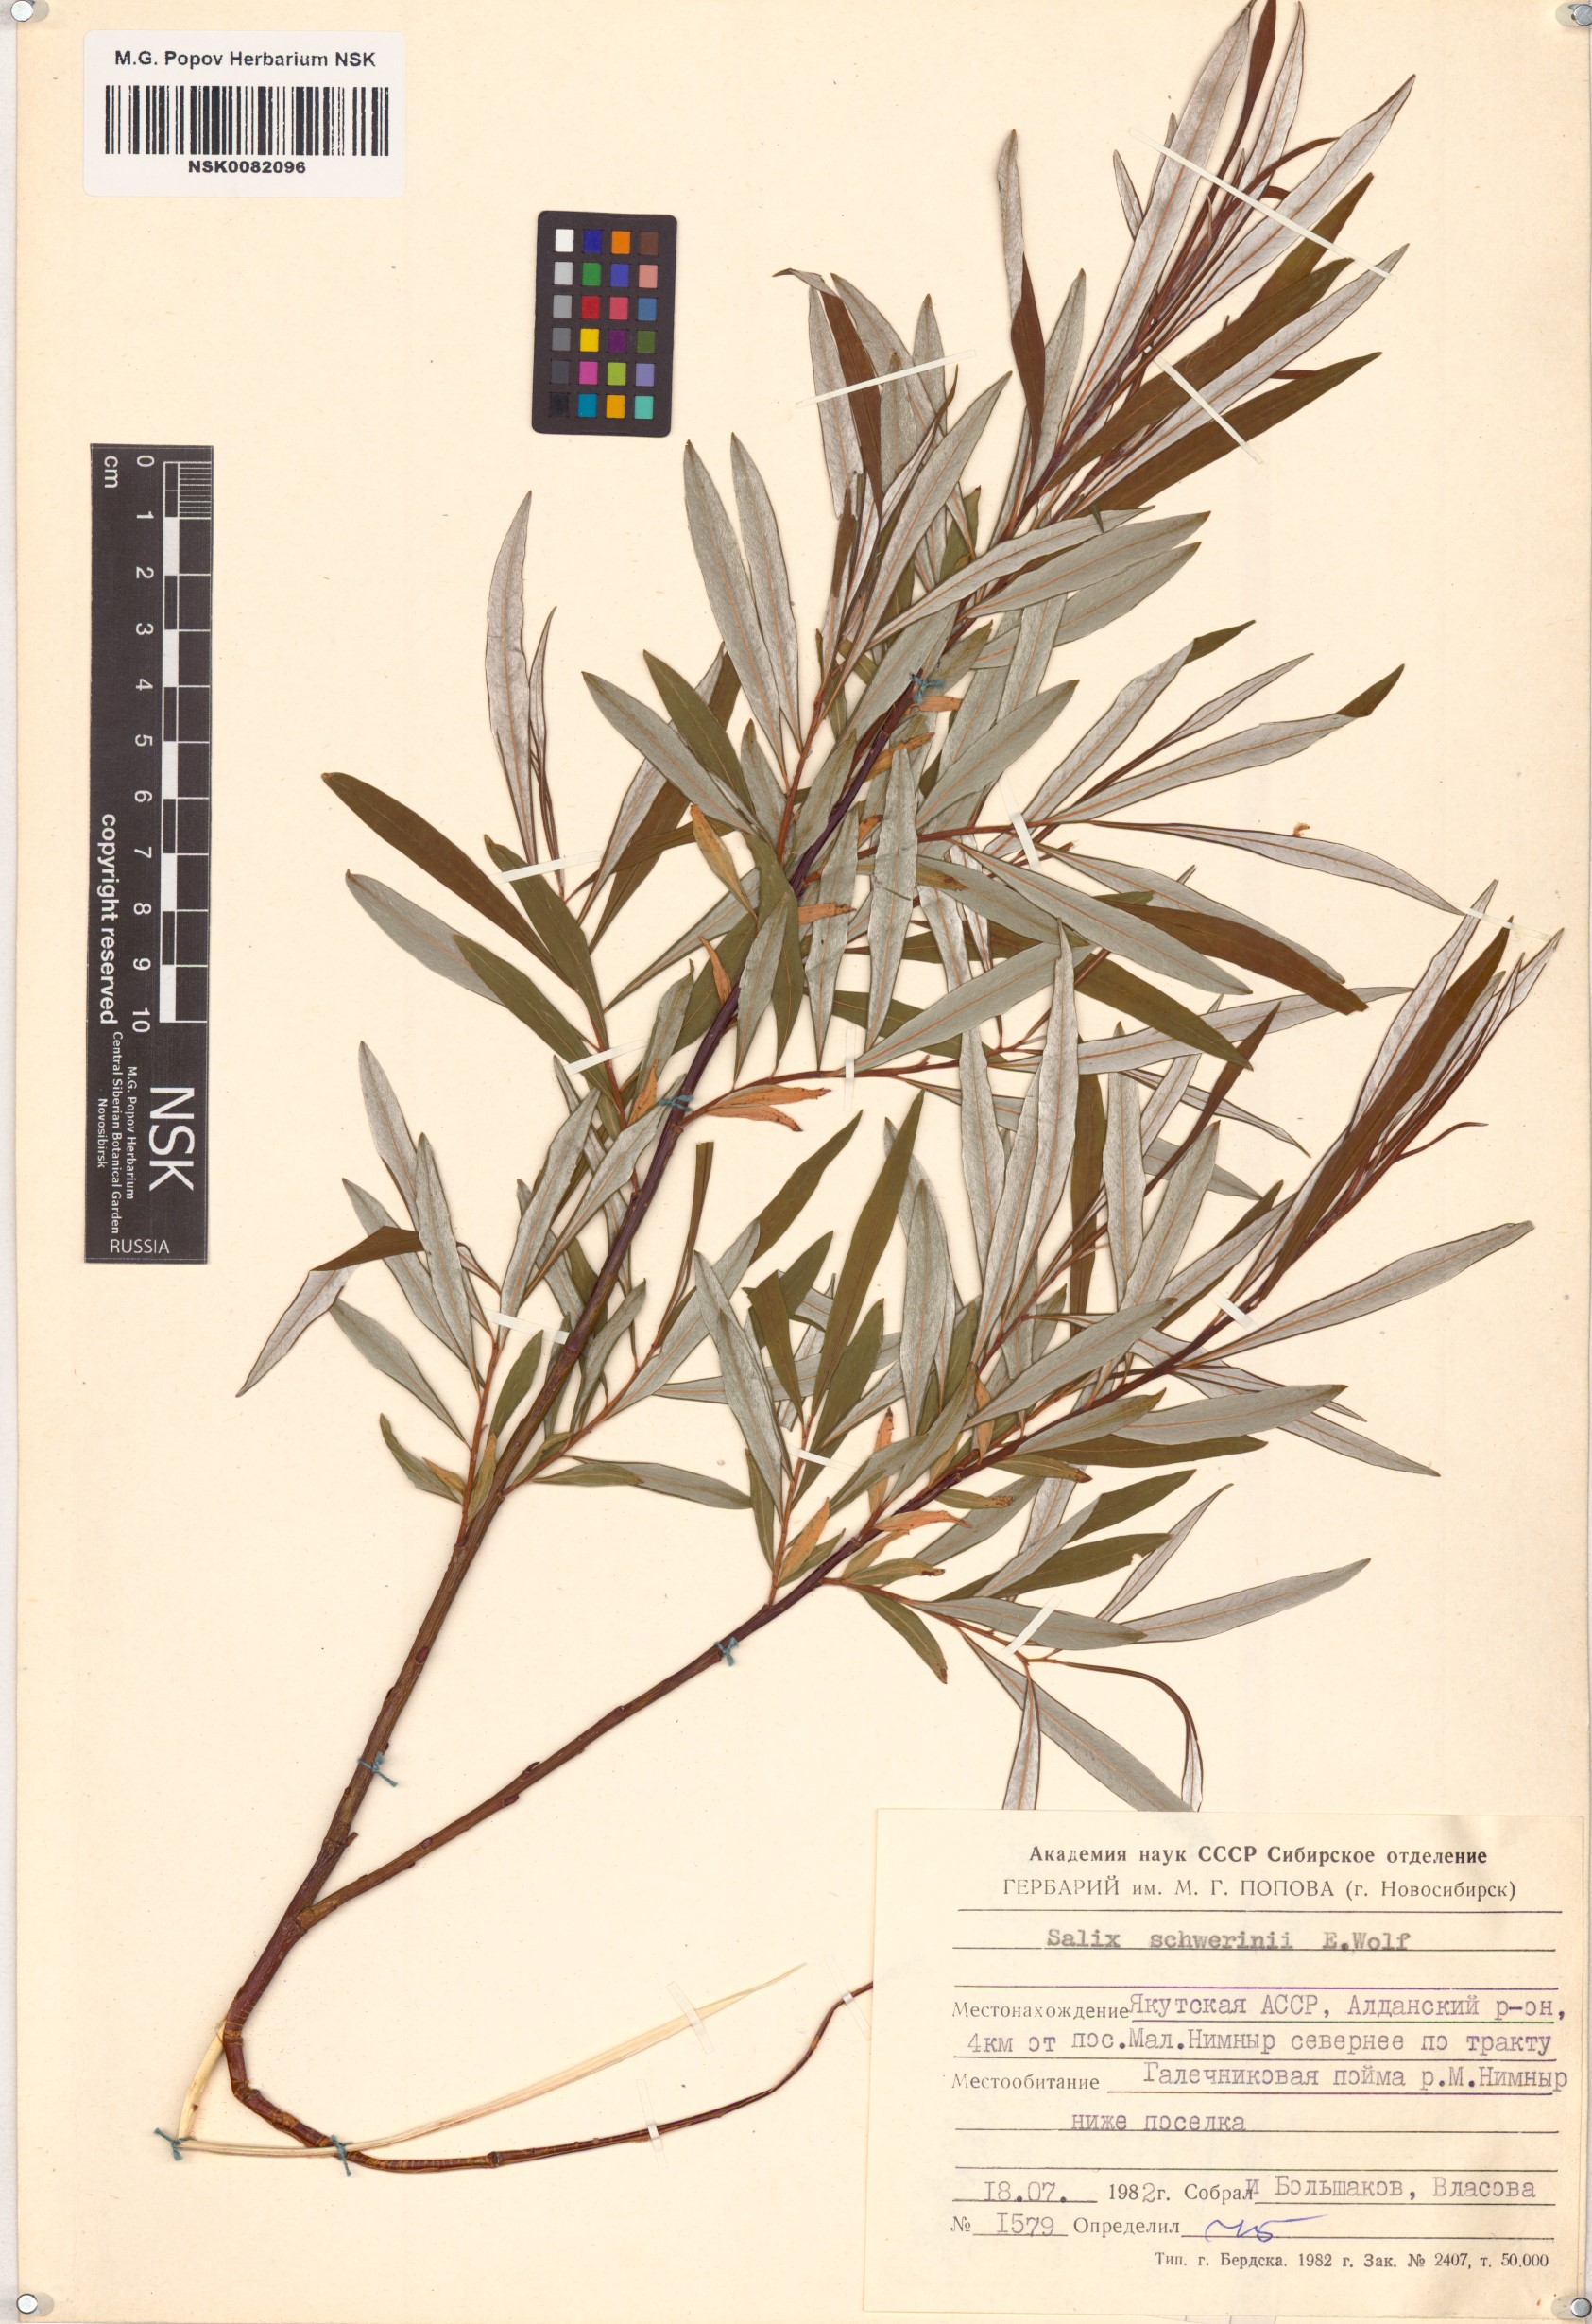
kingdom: Plantae
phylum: Tracheophyta
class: Magnoliopsida
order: Malpighiales
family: Salicaceae
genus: Salix
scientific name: Salix schwerinii
